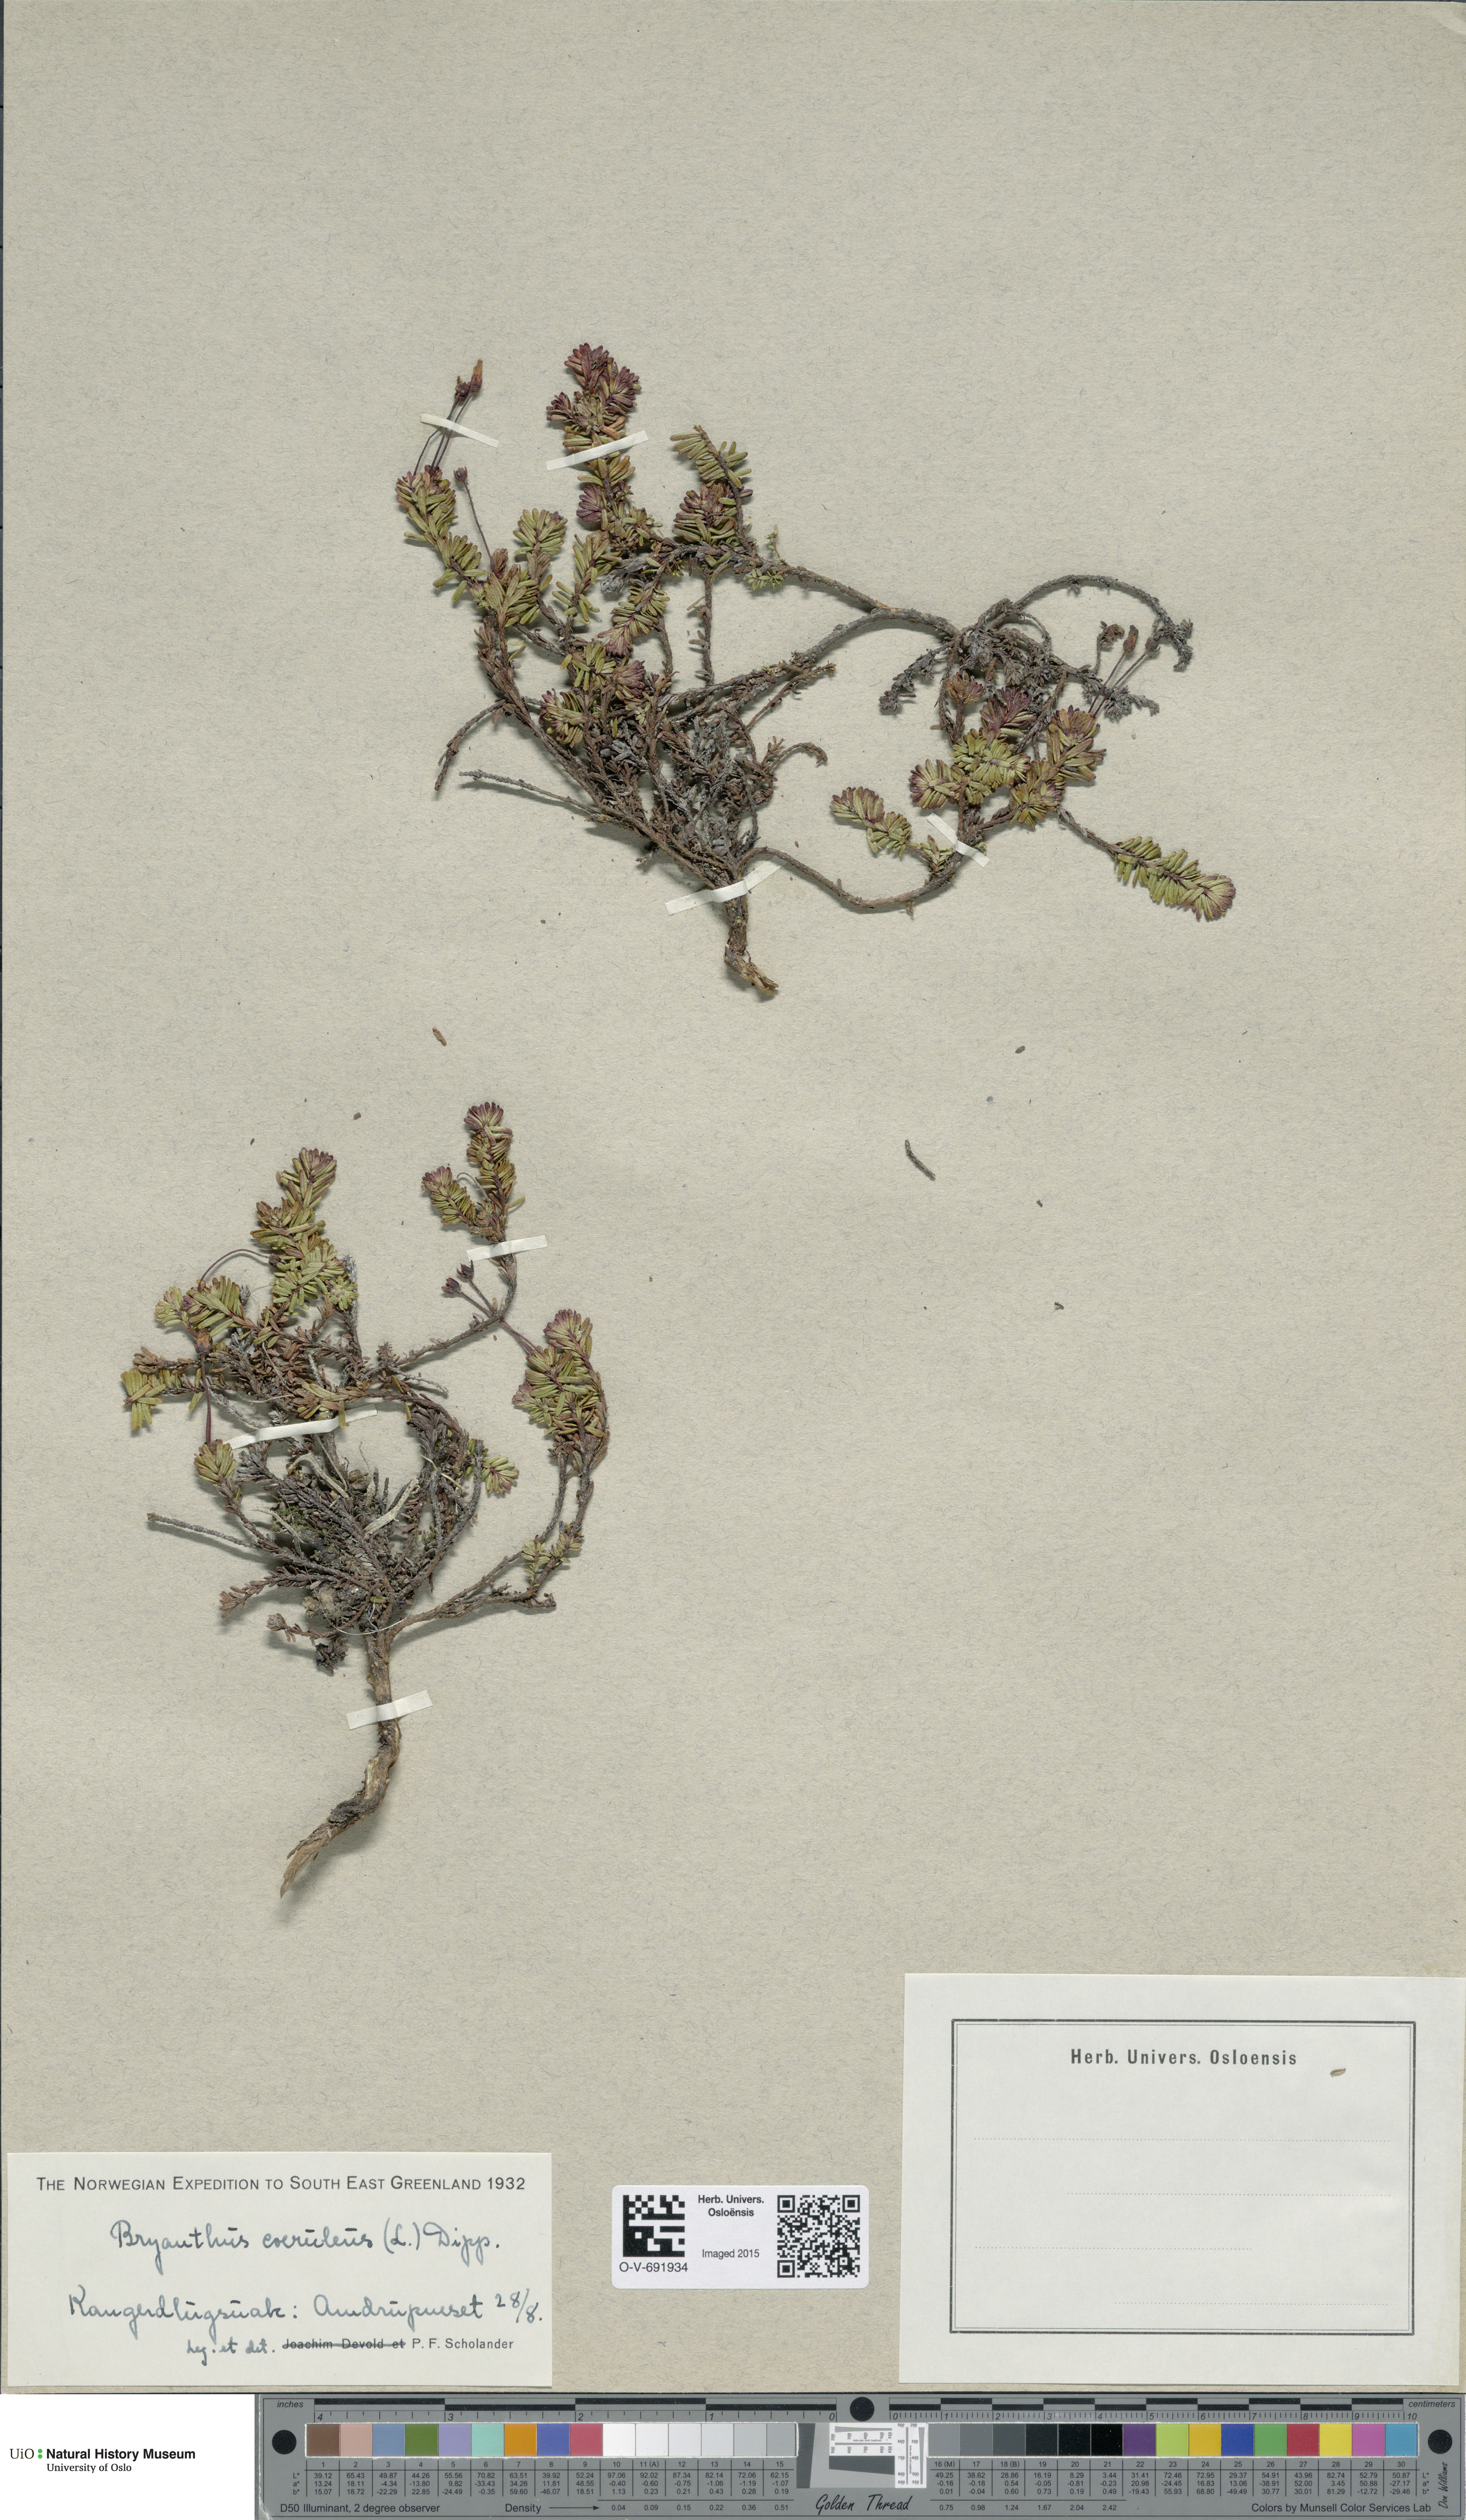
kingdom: Plantae
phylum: Tracheophyta
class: Magnoliopsida
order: Ericales
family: Ericaceae
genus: Phyllodoce
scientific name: Phyllodoce caerulea
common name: Blue heath
